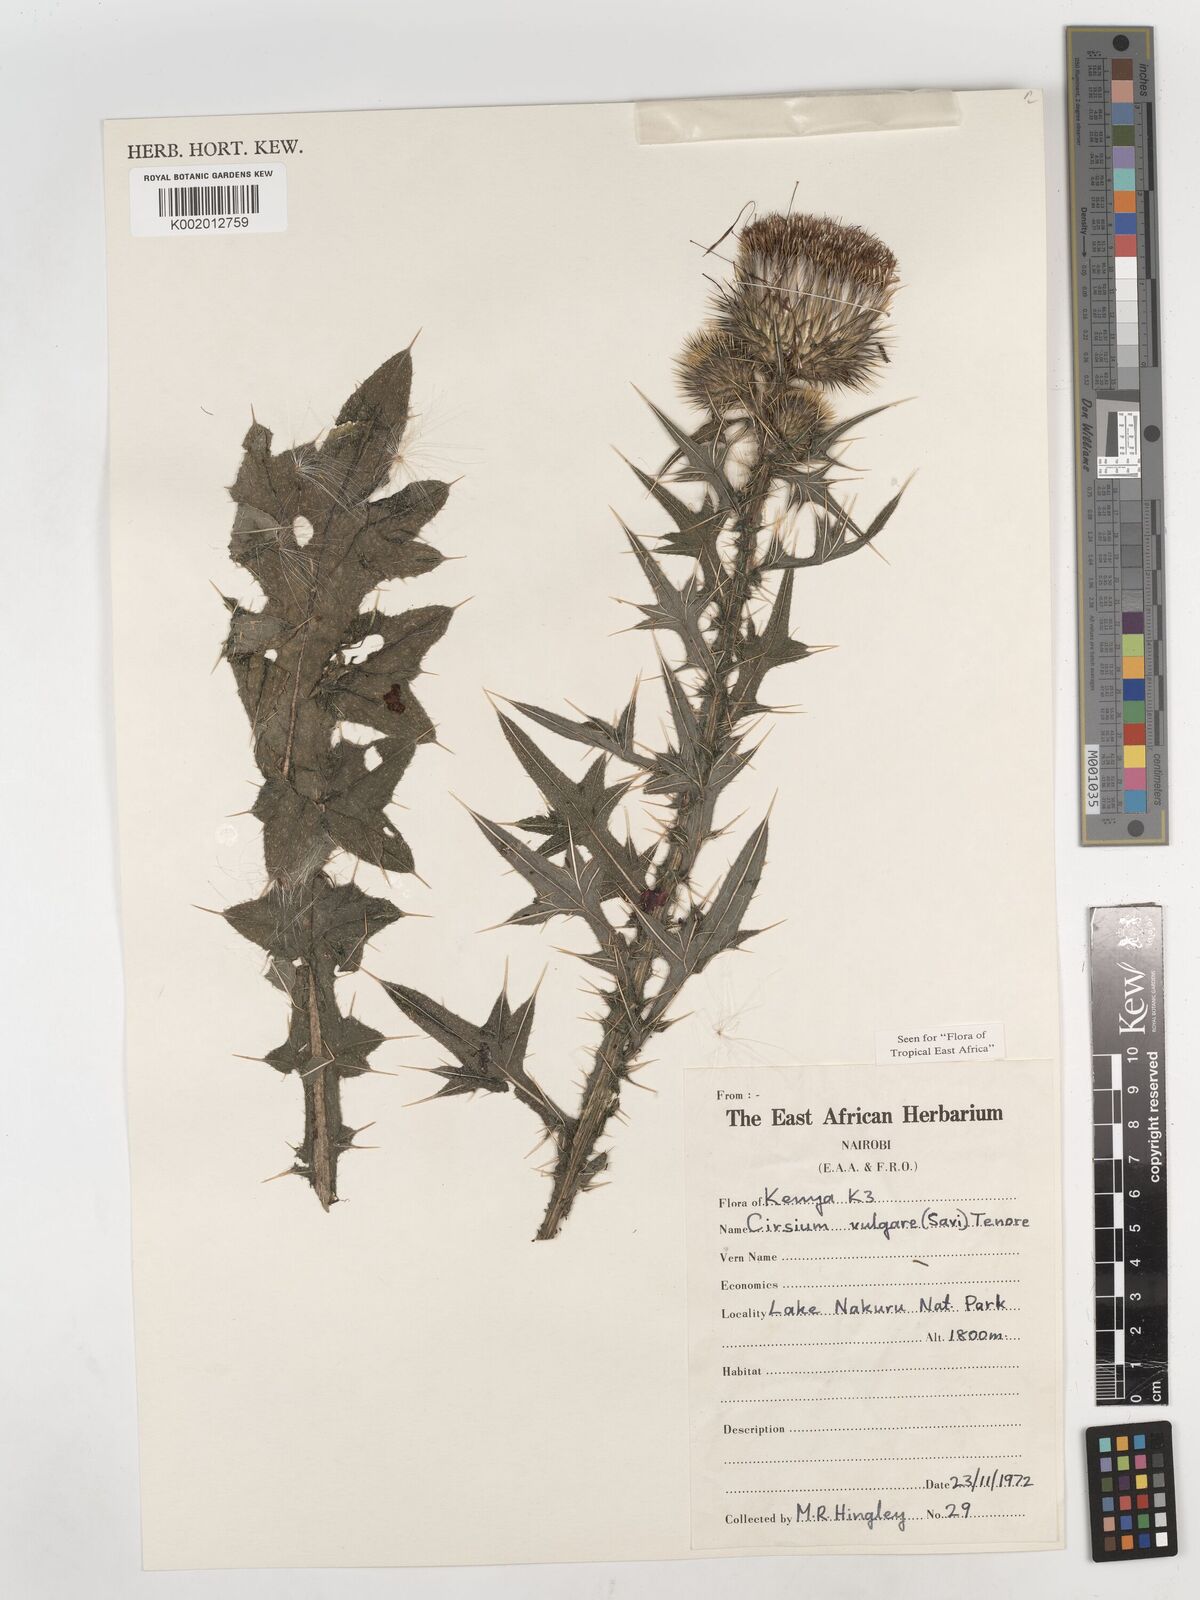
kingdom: Plantae
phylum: Tracheophyta
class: Magnoliopsida
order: Asterales
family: Asteraceae
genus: Cirsium
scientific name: Cirsium vulgare
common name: Bull thistle
